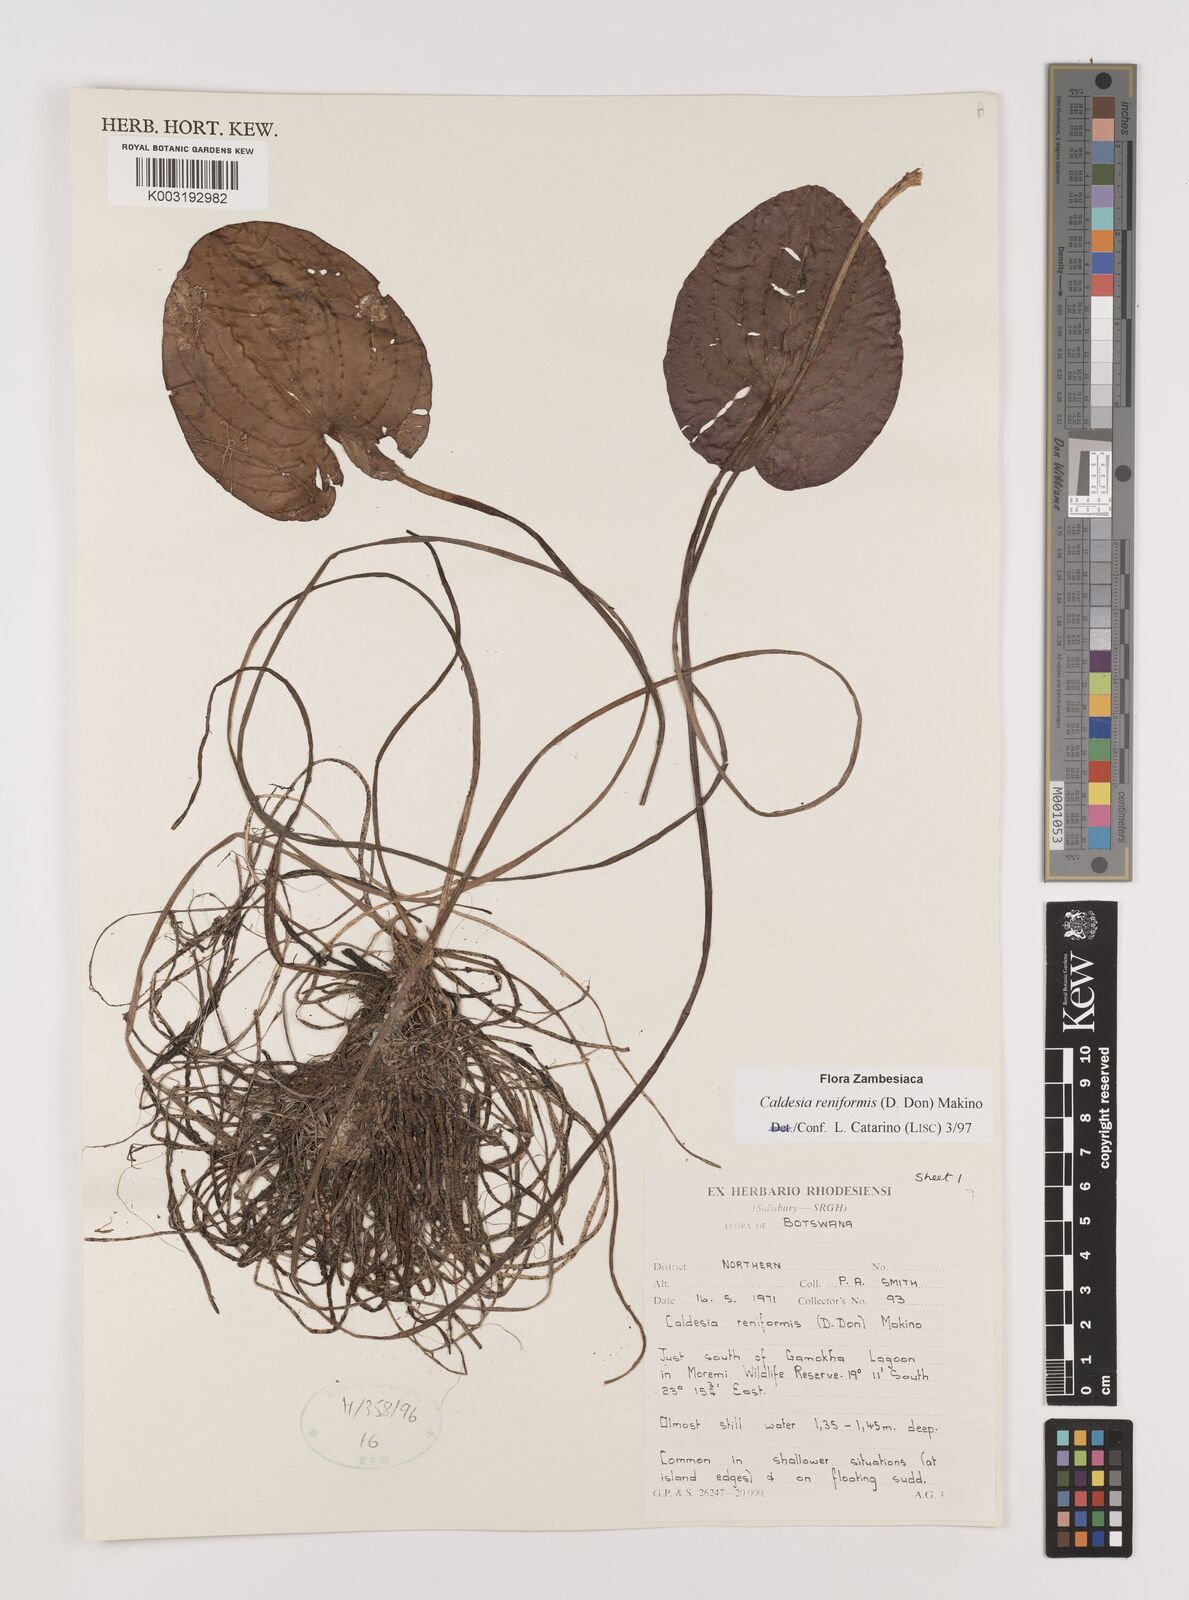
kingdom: Plantae
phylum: Tracheophyta
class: Liliopsida
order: Alismatales
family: Alismataceae
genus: Caldesia
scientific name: Caldesia parnassifolia
